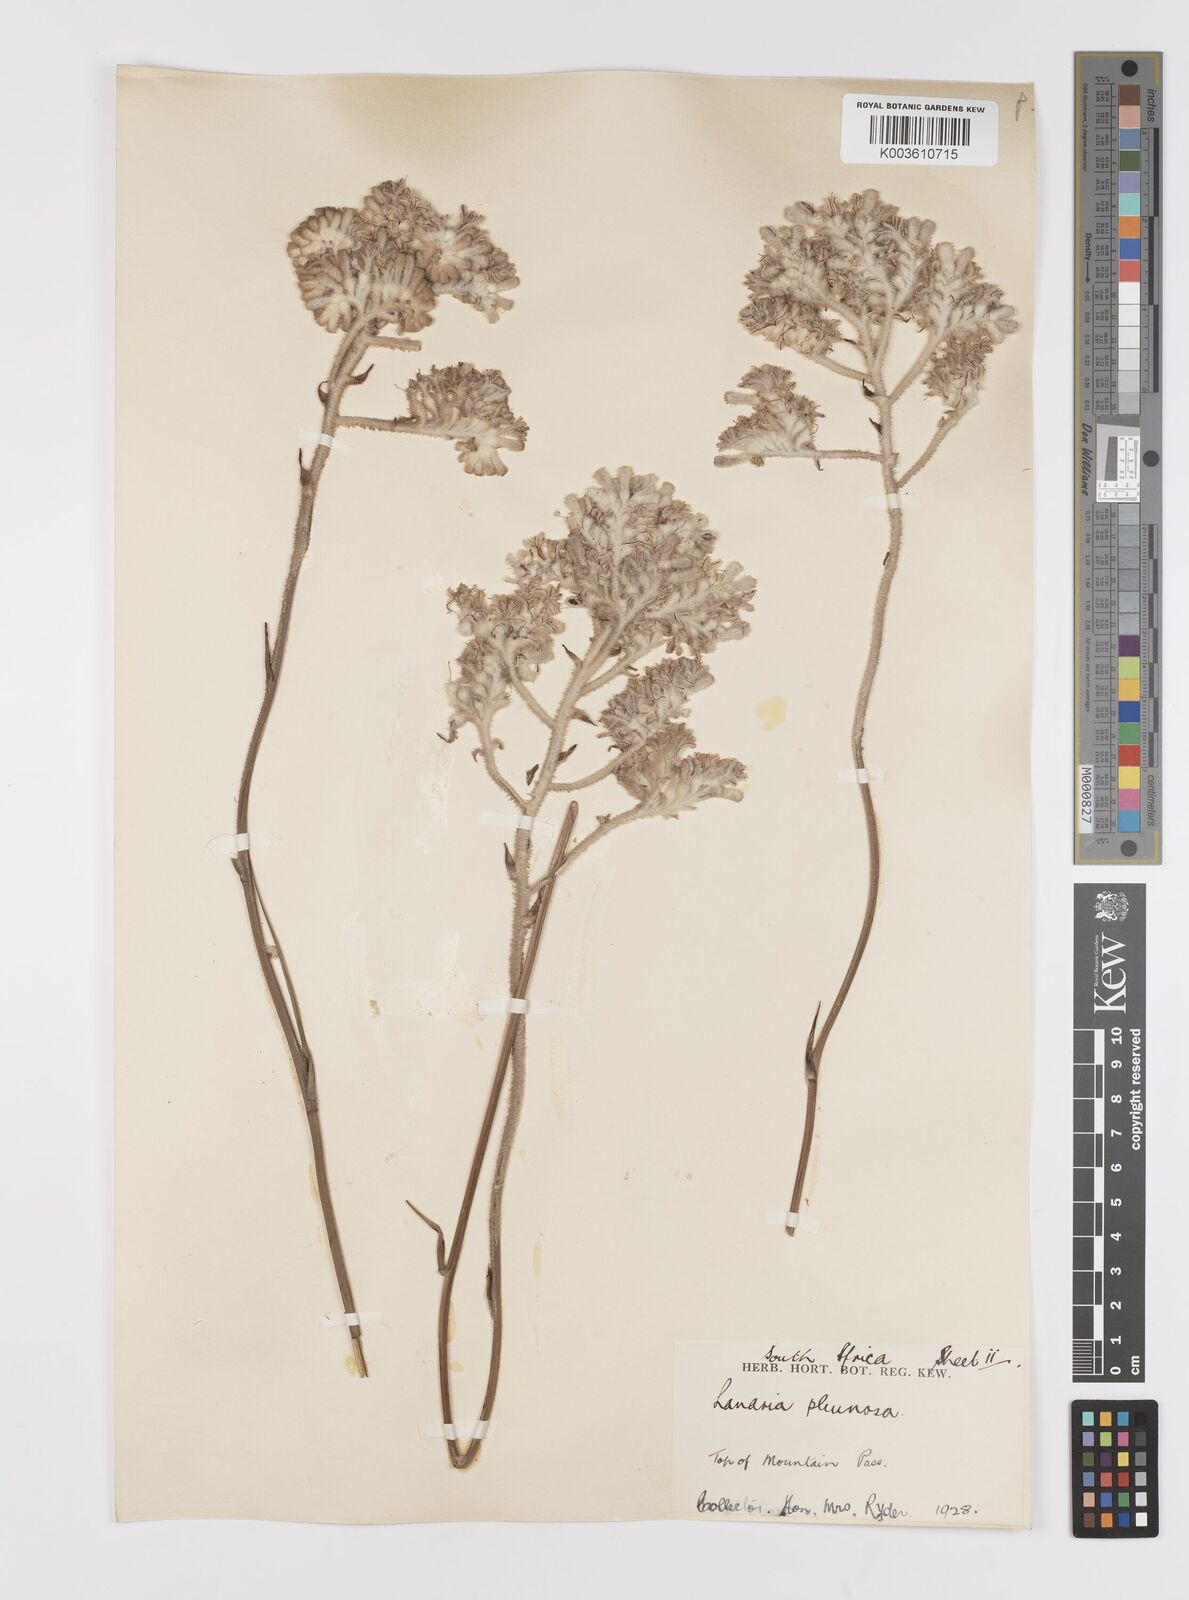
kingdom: Plantae
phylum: Tracheophyta
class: Liliopsida
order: Asparagales
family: Lanariaceae
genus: Lanaria
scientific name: Lanaria lanata
